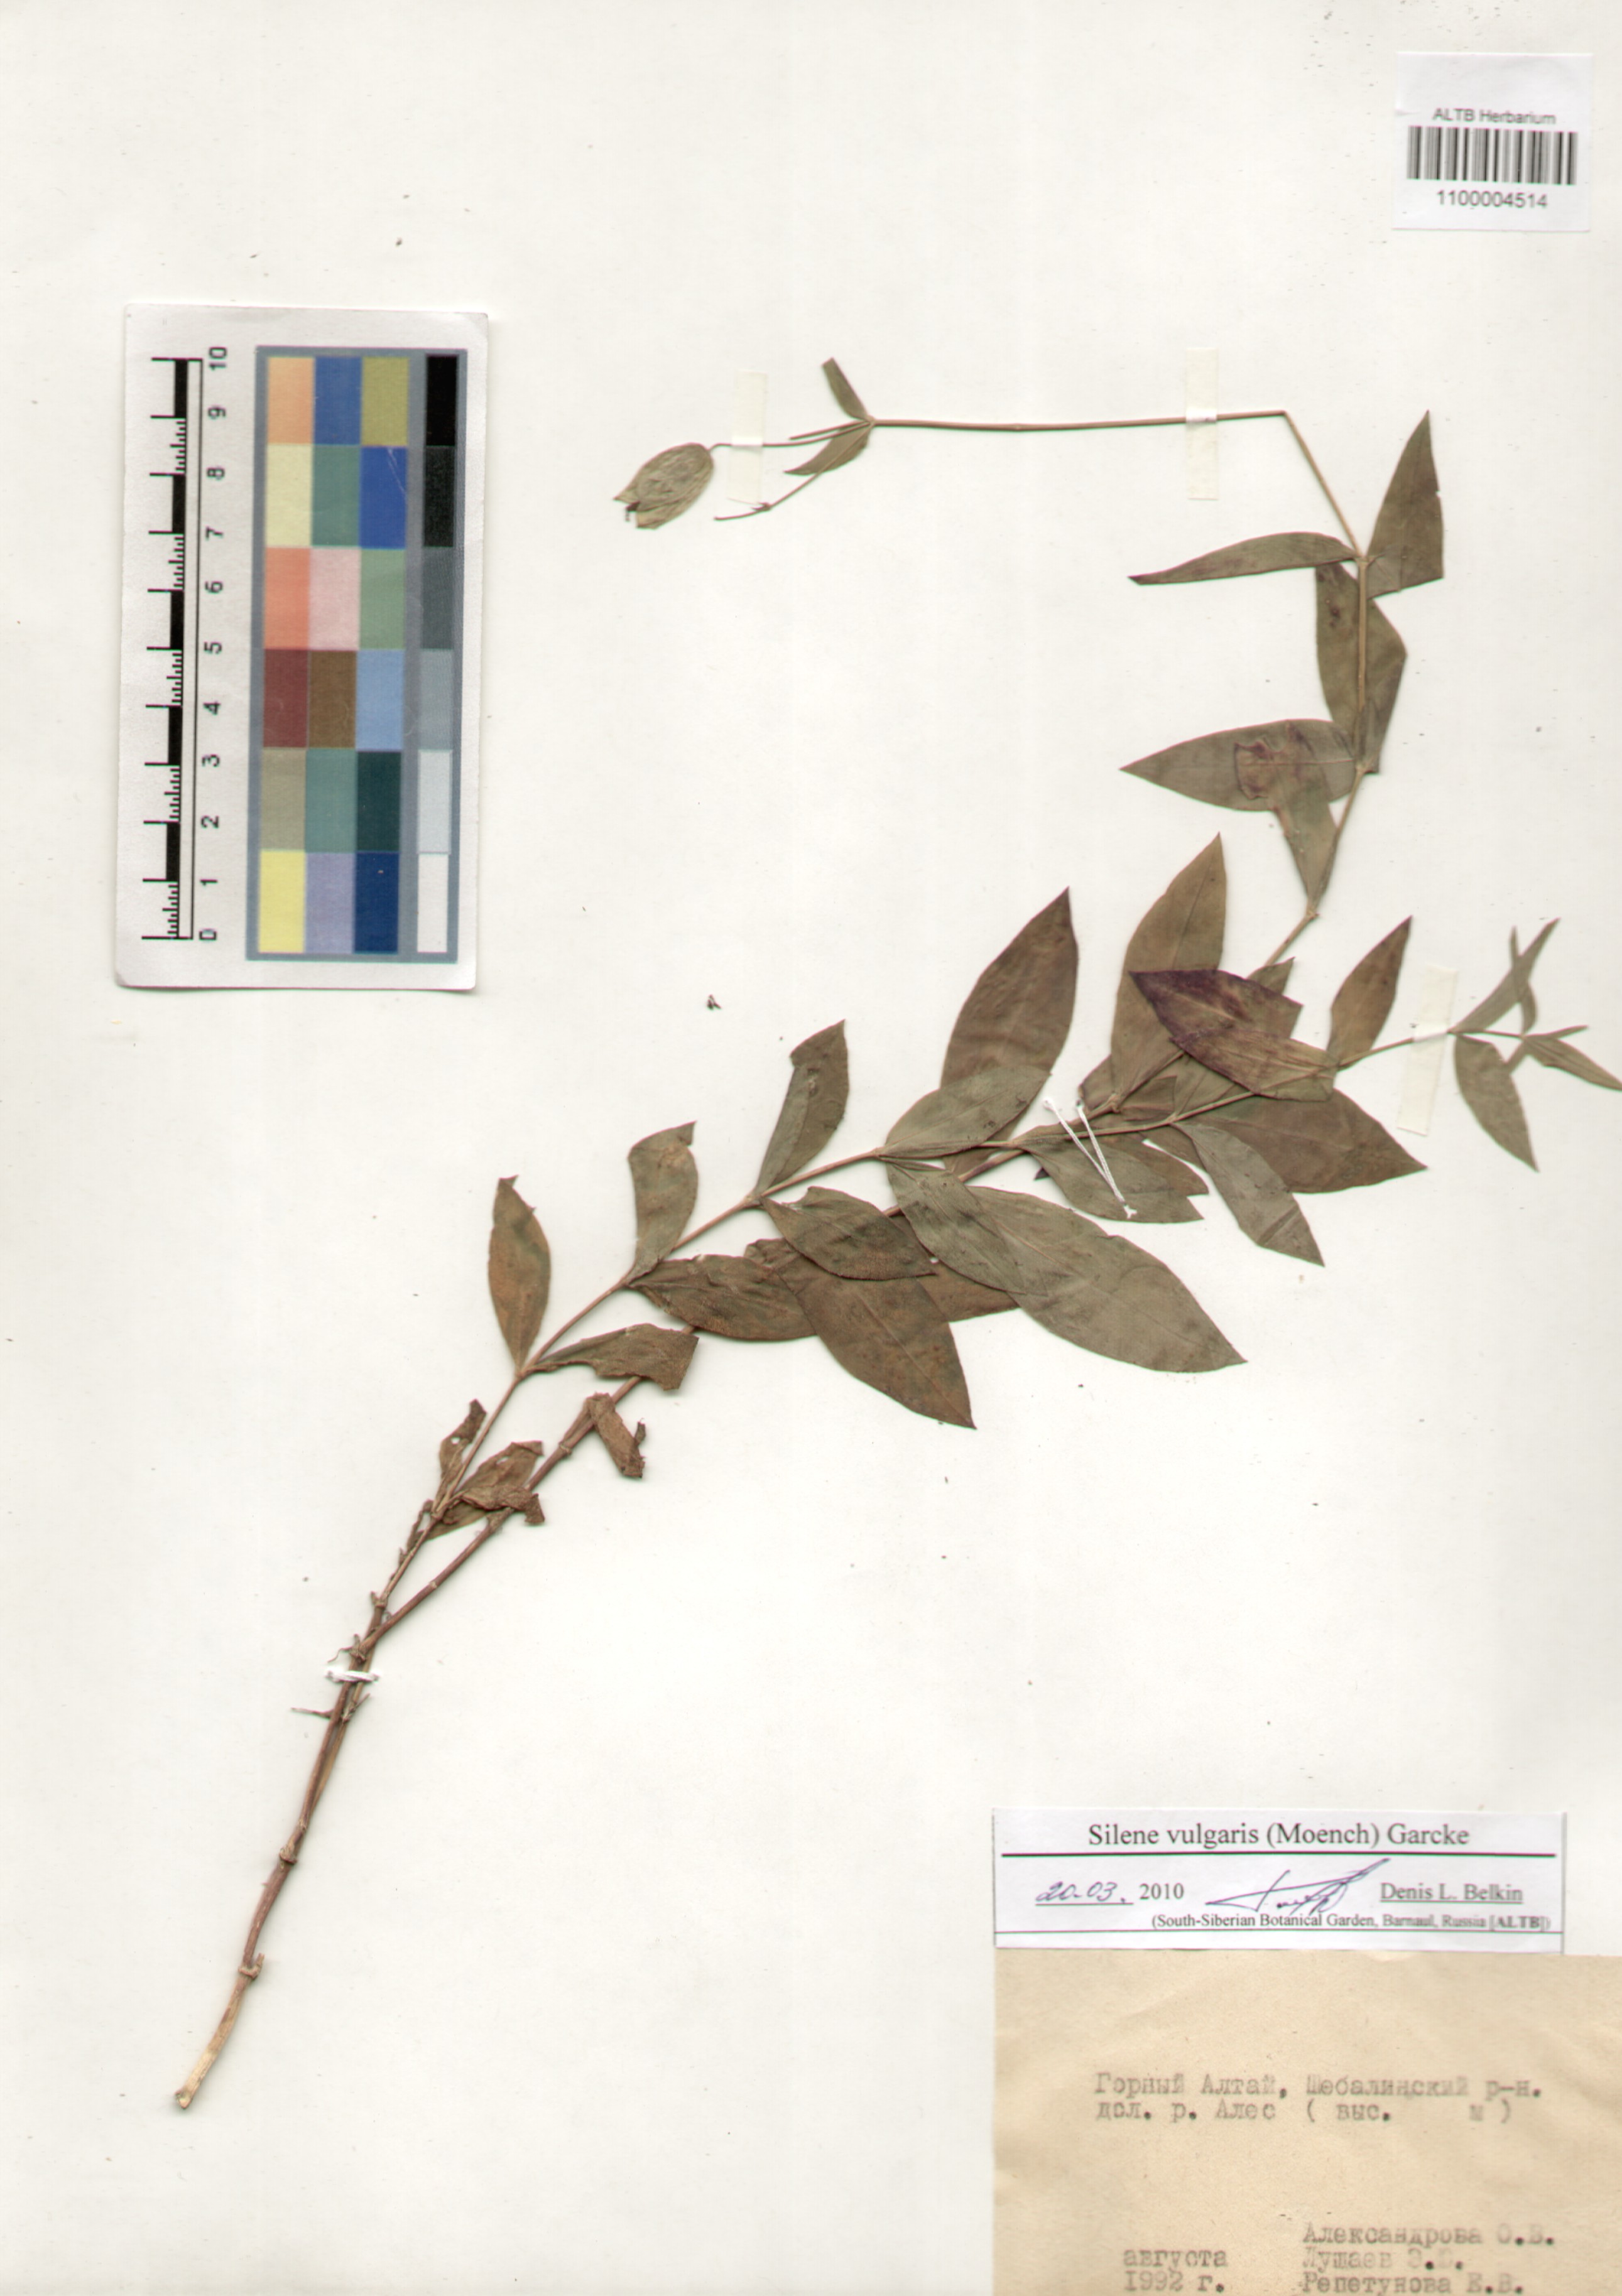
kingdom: Plantae
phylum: Tracheophyta
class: Magnoliopsida
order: Caryophyllales
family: Caryophyllaceae
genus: Silene
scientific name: Silene vulgaris
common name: Bladder campion
